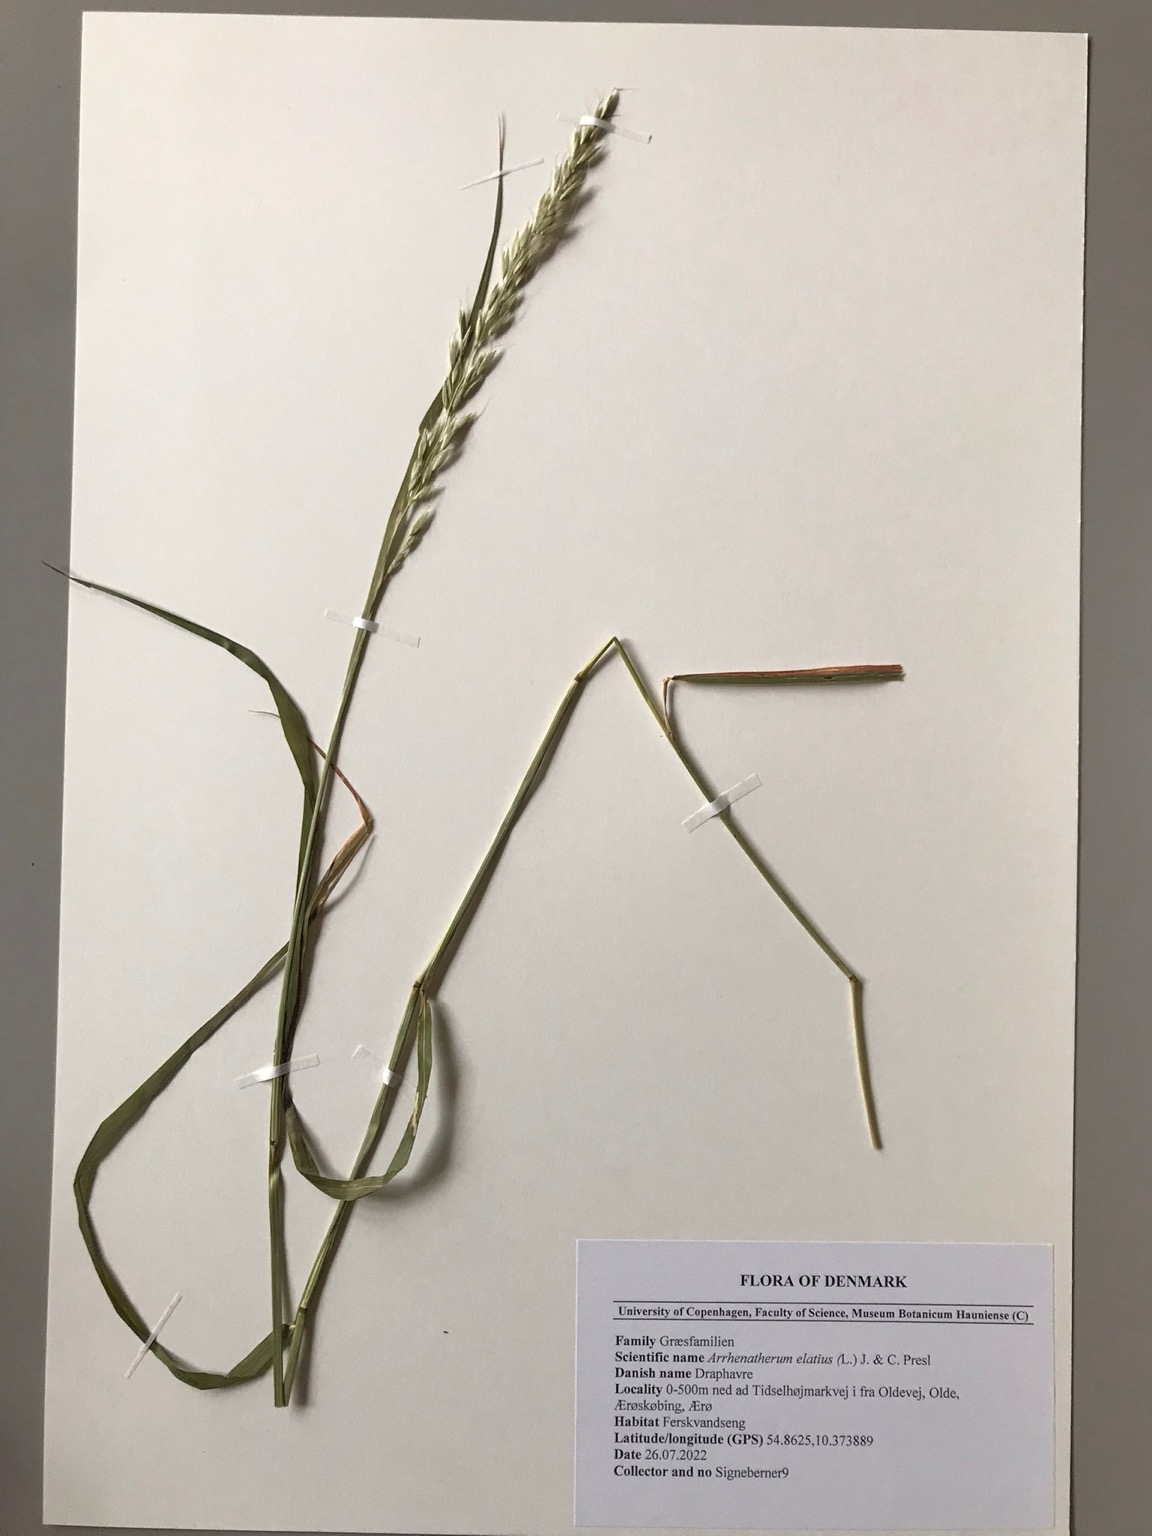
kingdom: Plantae
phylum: Tracheophyta
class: Liliopsida
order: Poales
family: Poaceae
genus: Arrhenatherum
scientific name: Arrhenatherum elatius
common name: Draphavre
